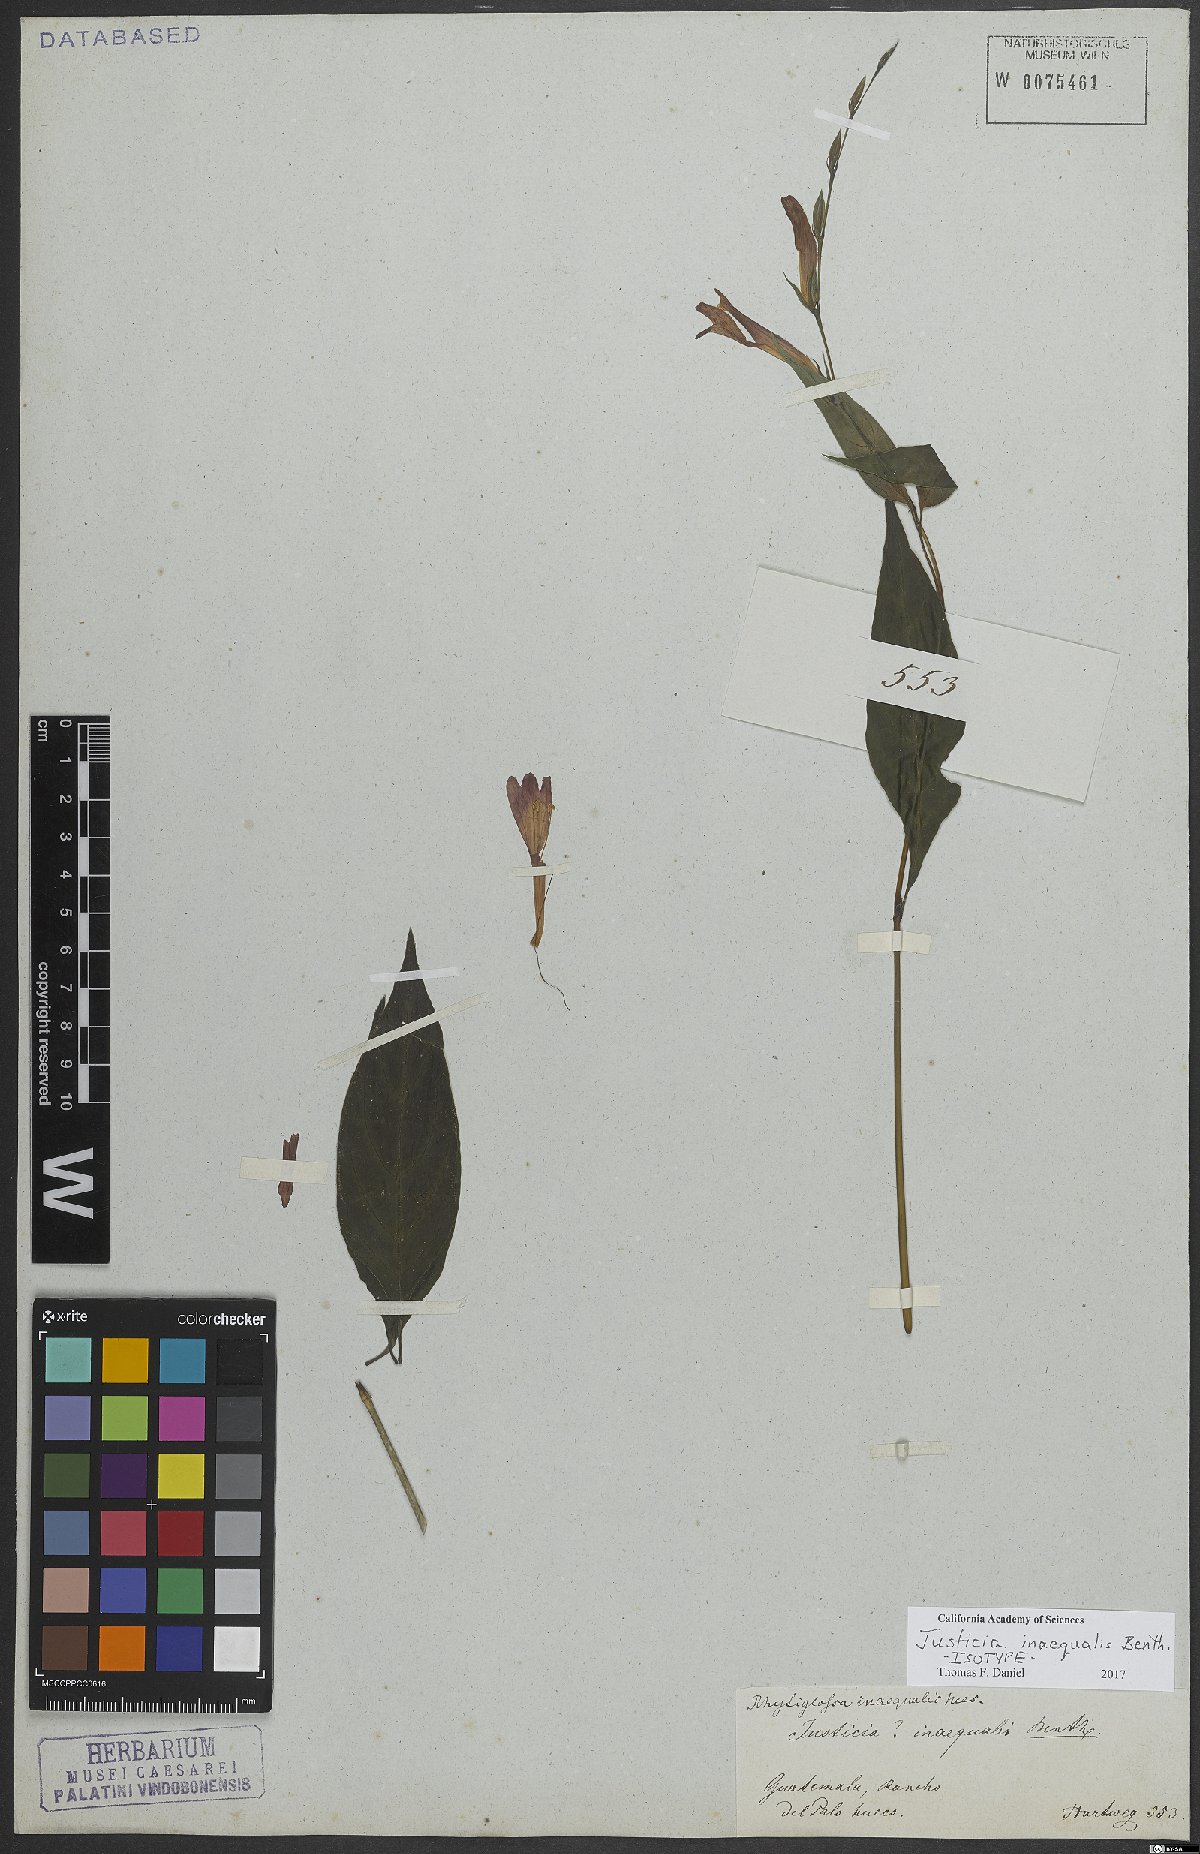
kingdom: Plantae
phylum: Tracheophyta
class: Magnoliopsida
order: Lamiales
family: Acanthaceae
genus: Dianthera
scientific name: Dianthera inaequalis
